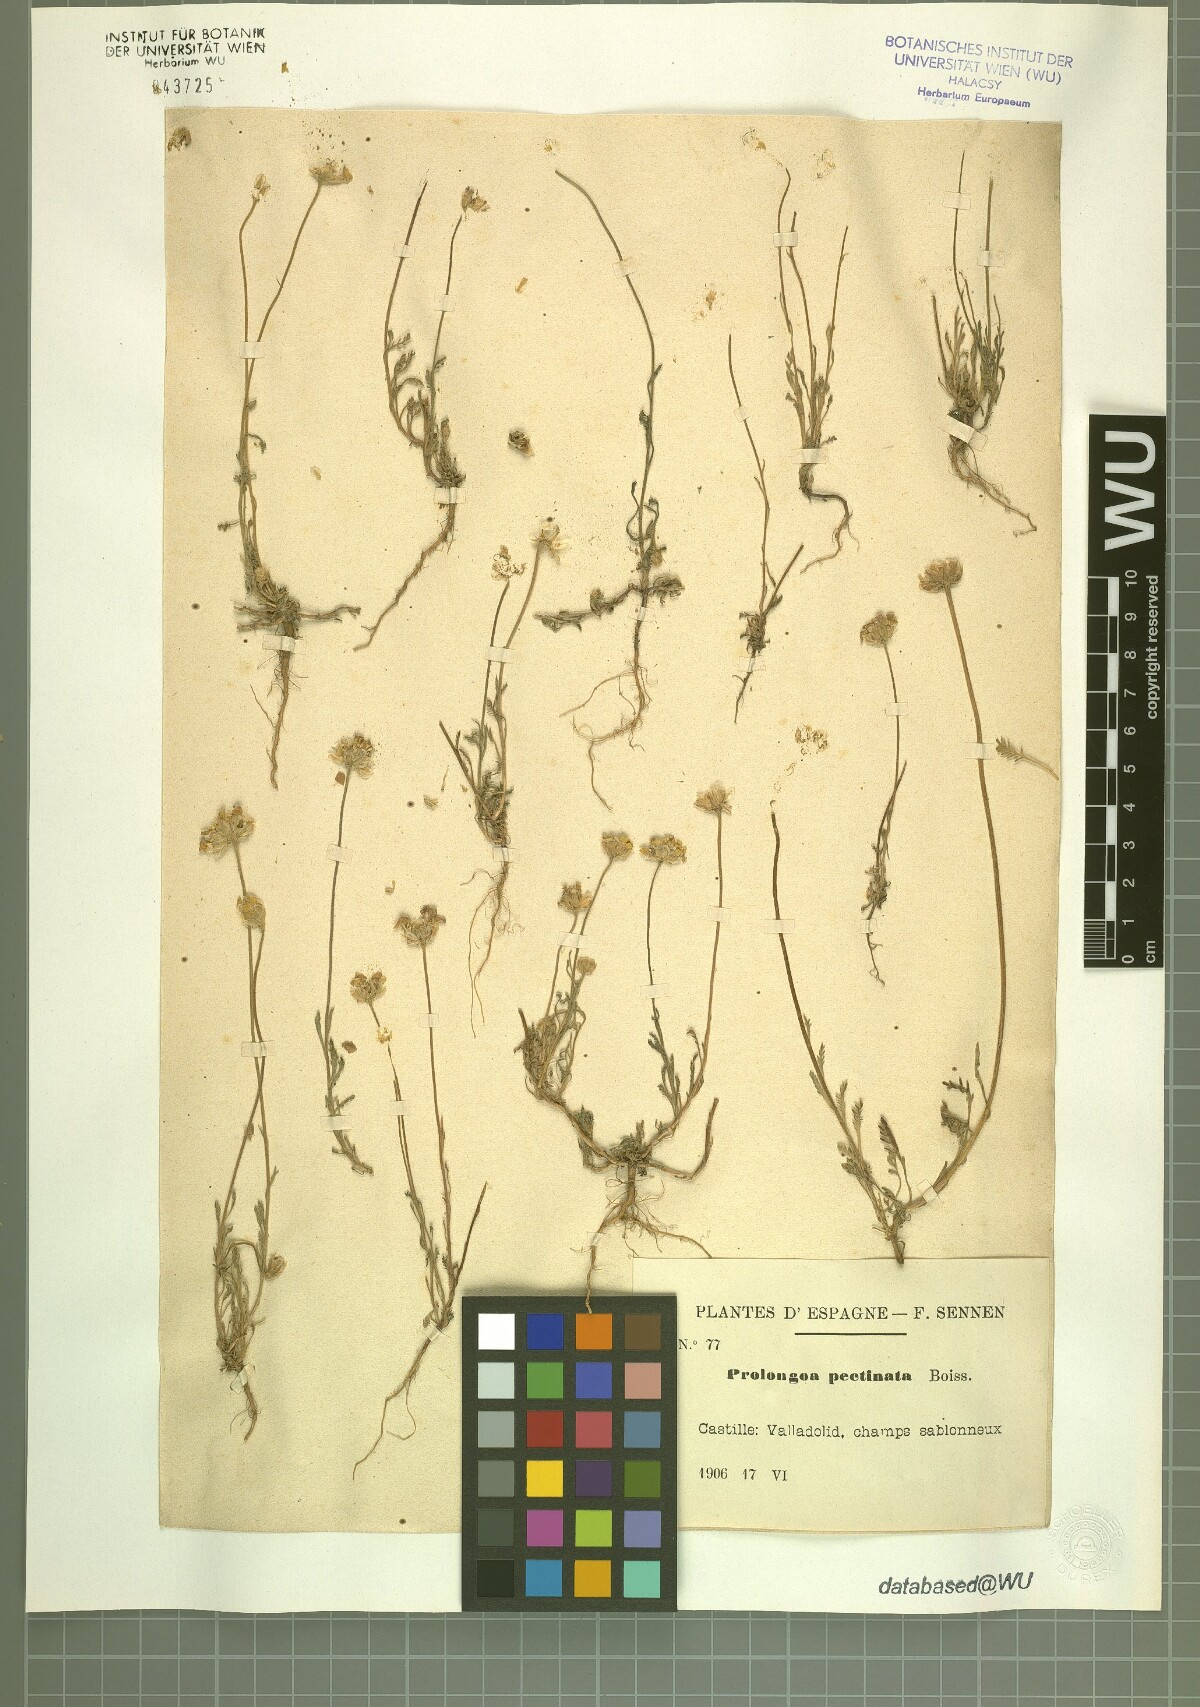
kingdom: Plantae
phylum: Tracheophyta
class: Magnoliopsida
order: Asterales
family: Asteraceae
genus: Leucanthemopsis
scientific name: Leucanthemopsis pectinata
